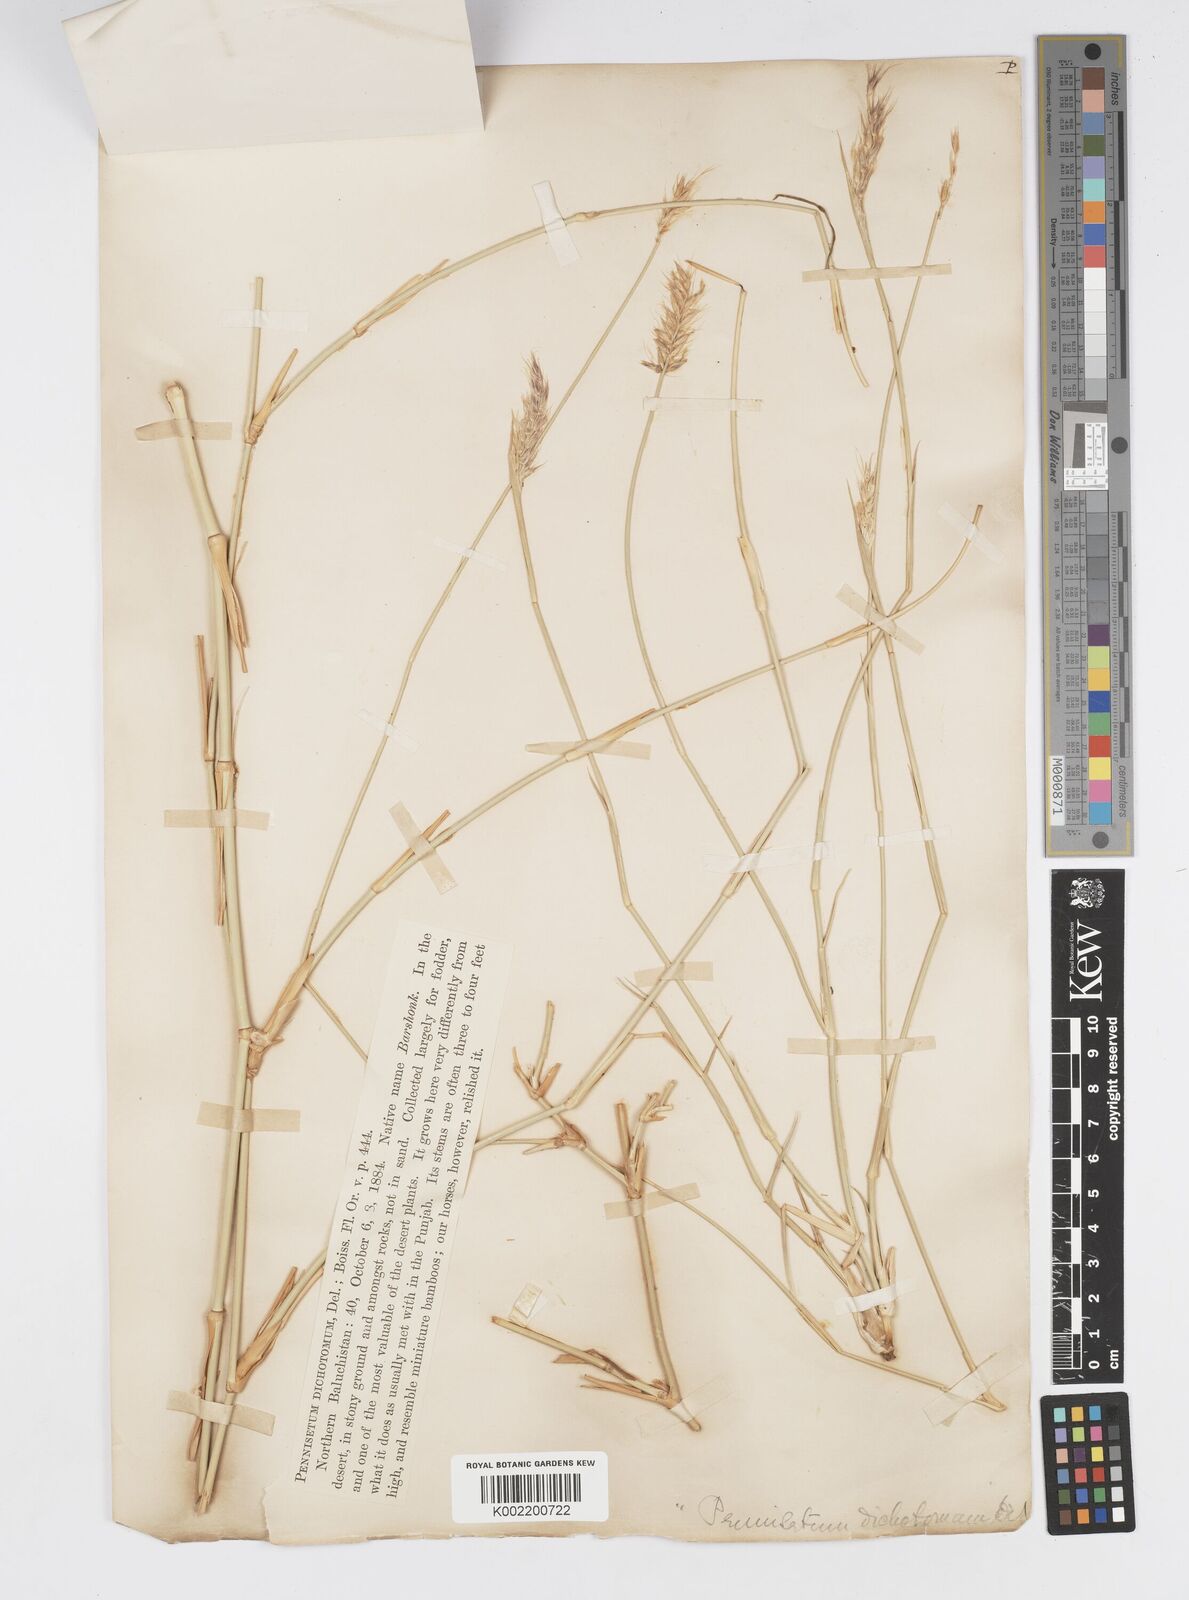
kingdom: Plantae
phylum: Tracheophyta
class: Liliopsida
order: Poales
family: Poaceae
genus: Cenchrus
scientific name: Cenchrus divisus
